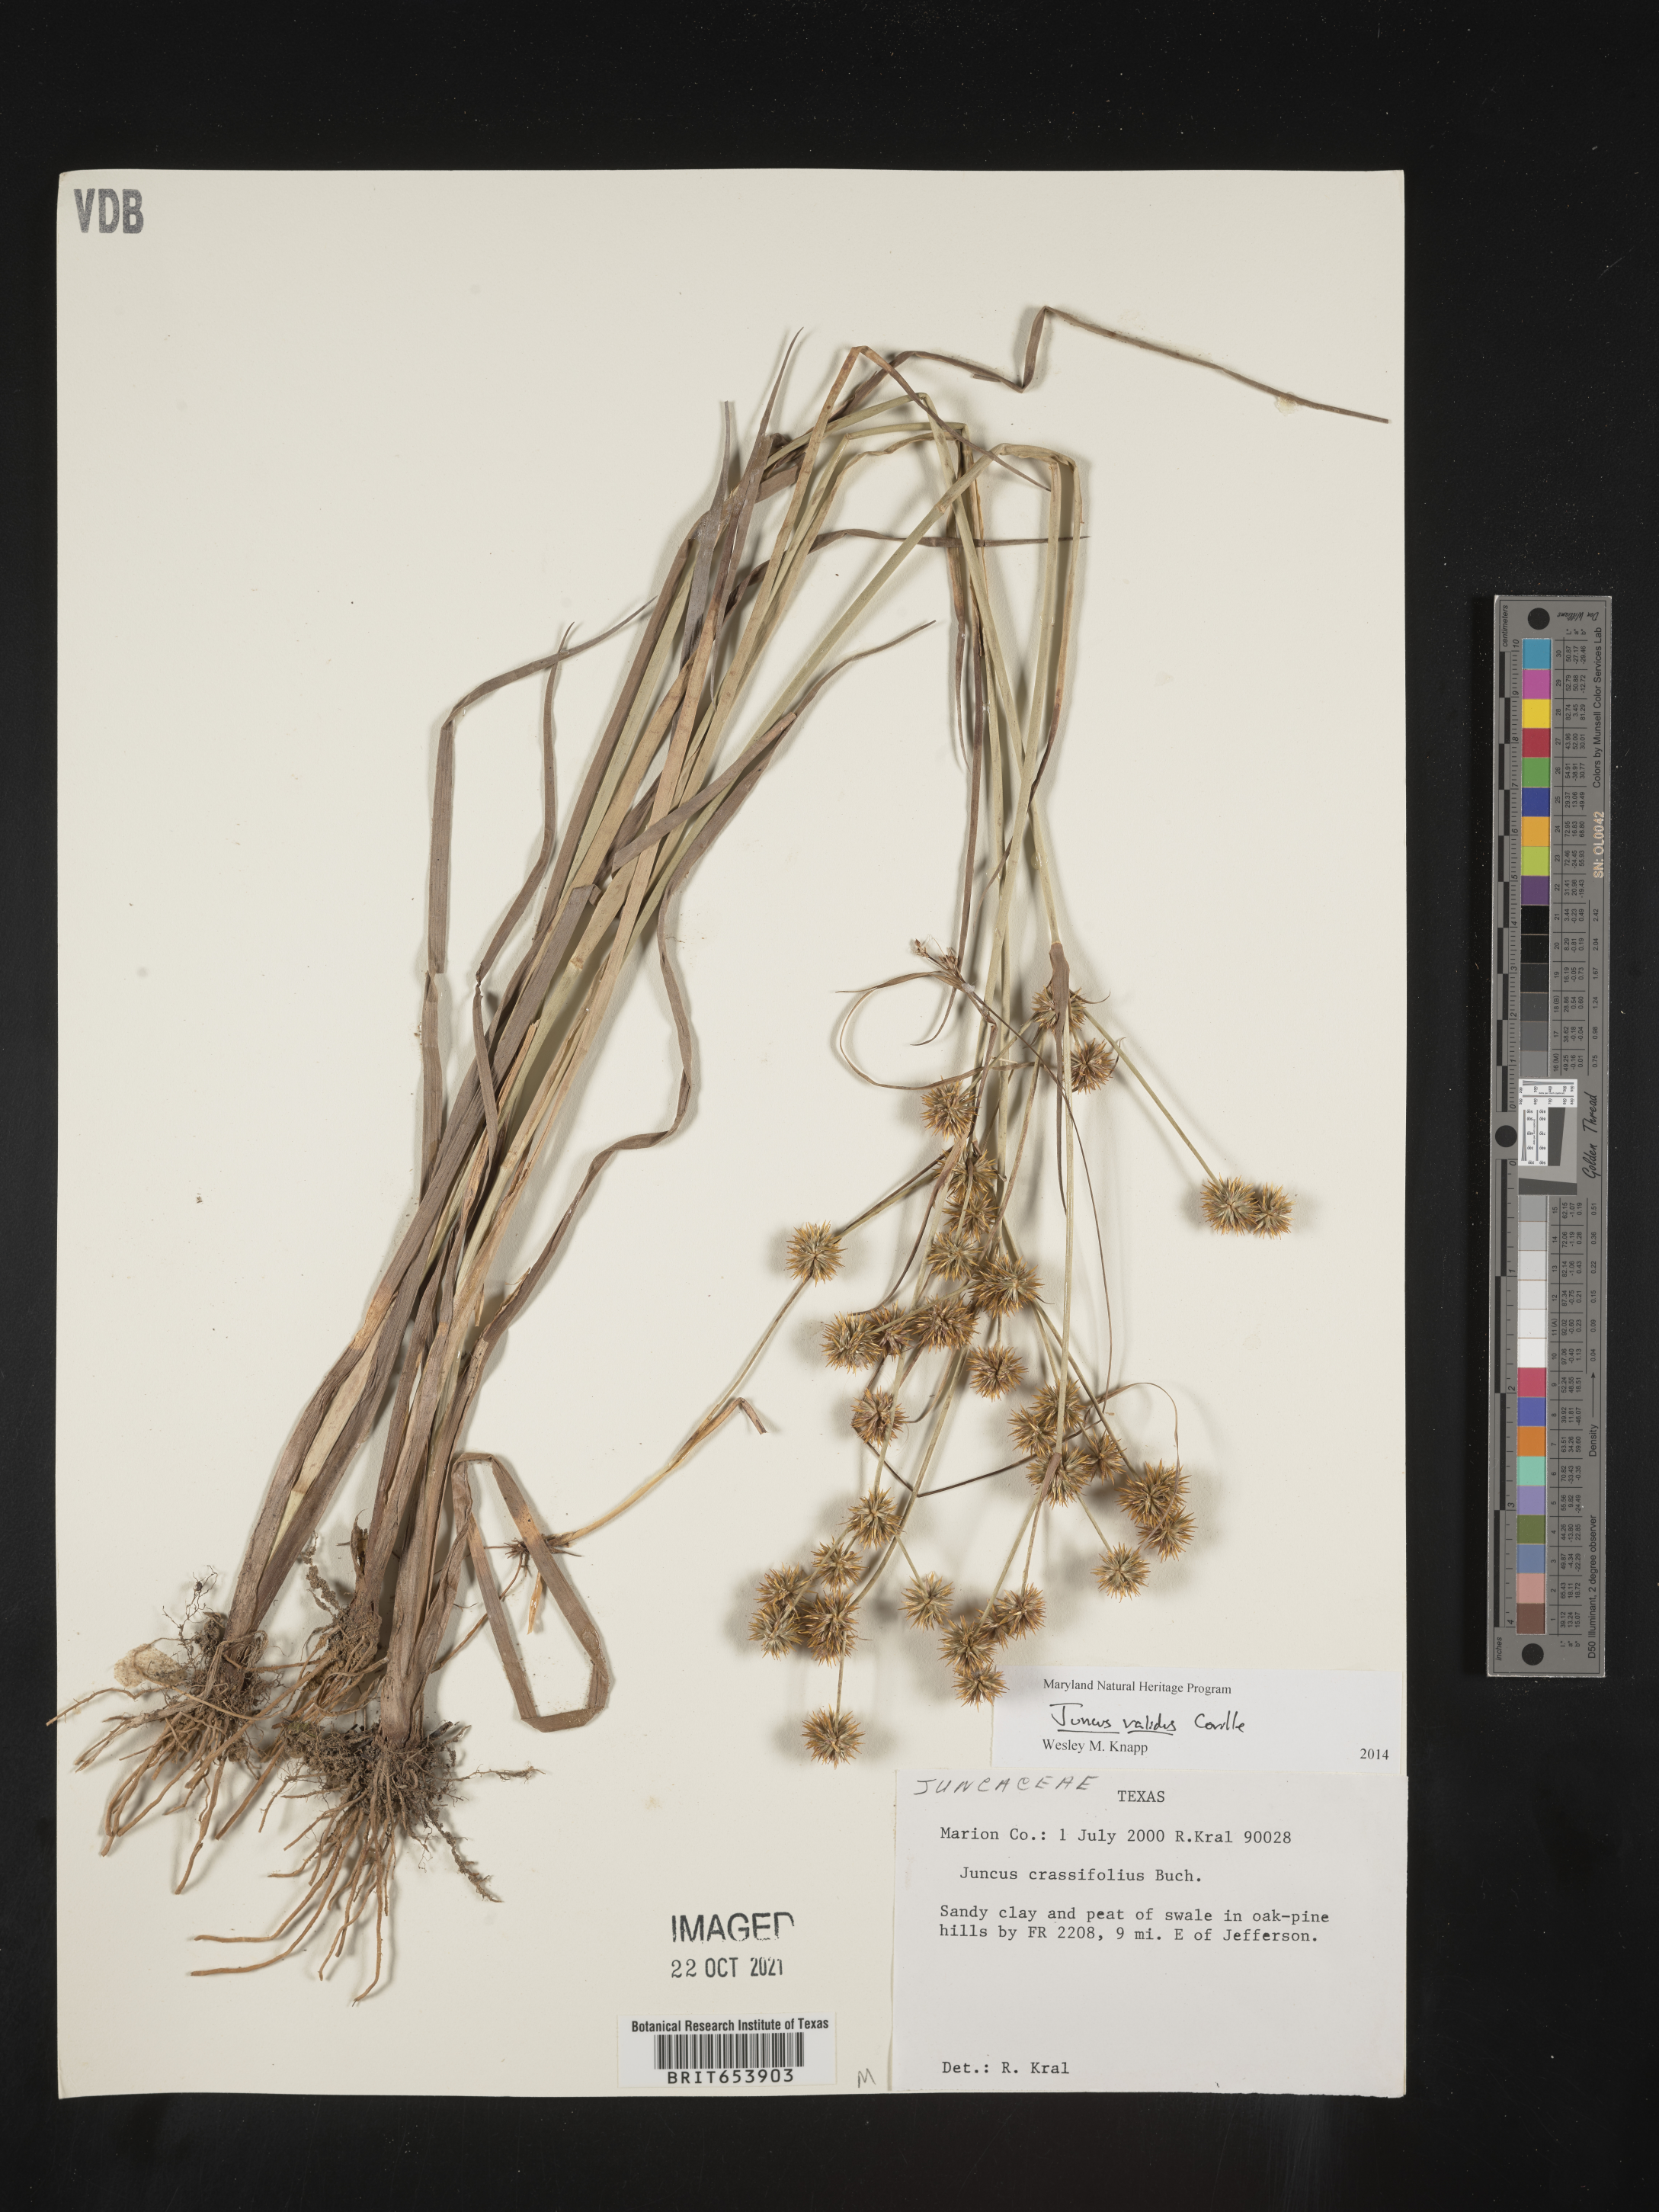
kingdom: Plantae
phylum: Tracheophyta
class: Liliopsida
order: Poales
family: Juncaceae
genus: Juncus
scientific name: Juncus validus
